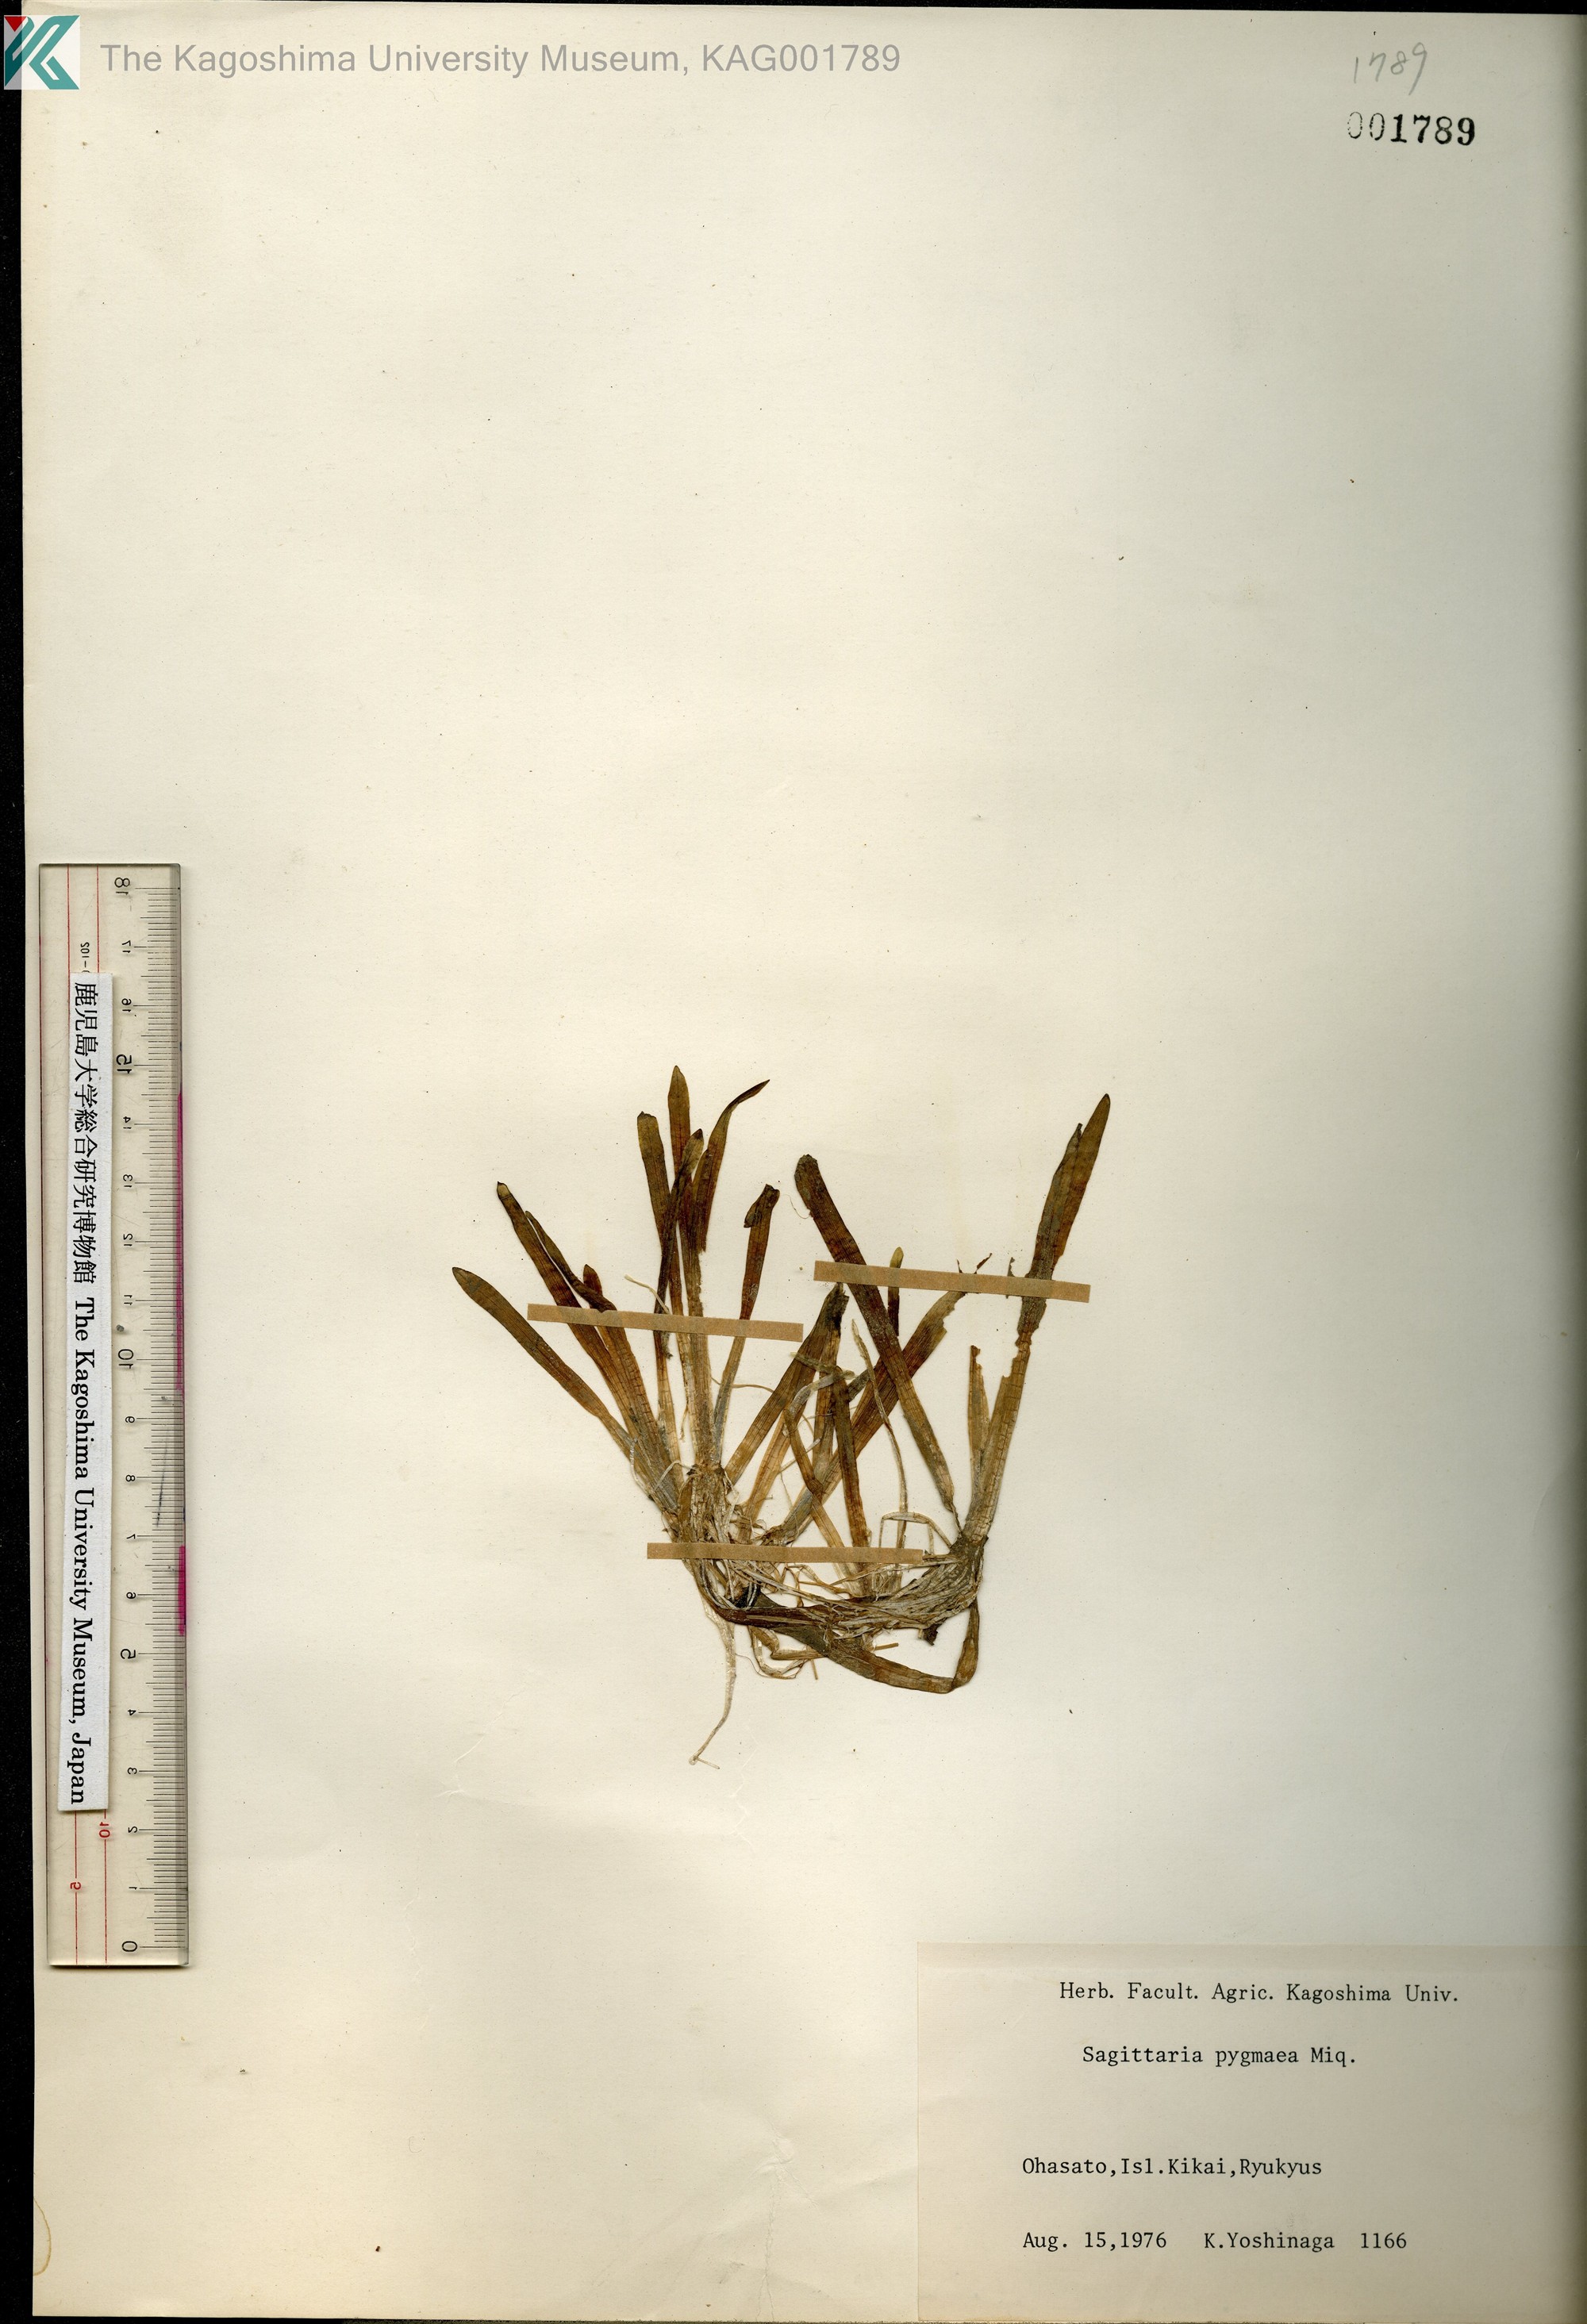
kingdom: Plantae
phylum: Tracheophyta
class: Liliopsida
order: Alismatales
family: Alismataceae
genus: Sagittaria
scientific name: Sagittaria pygmaea
